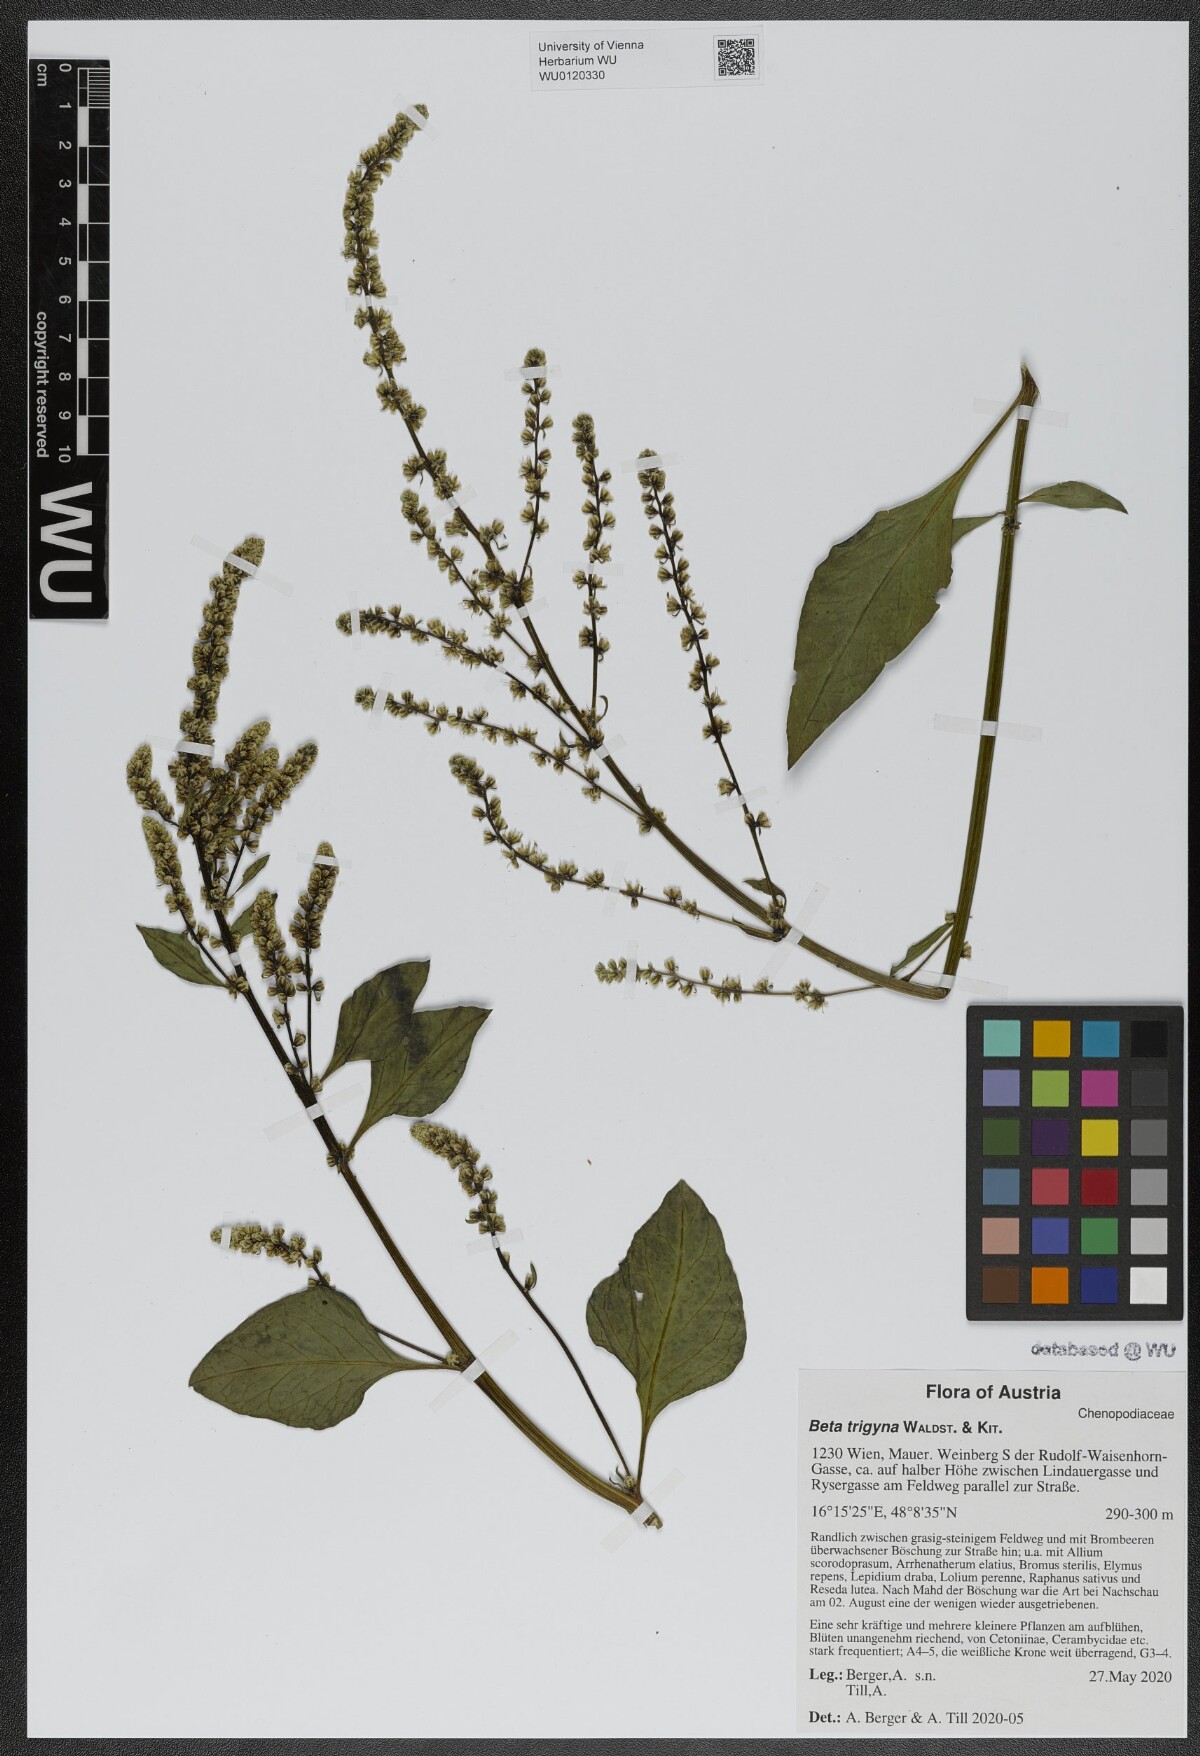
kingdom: Plantae
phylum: Tracheophyta
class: Magnoliopsida
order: Caryophyllales
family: Amaranthaceae
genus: Beta
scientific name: Beta trigyna
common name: Caucasian beet
